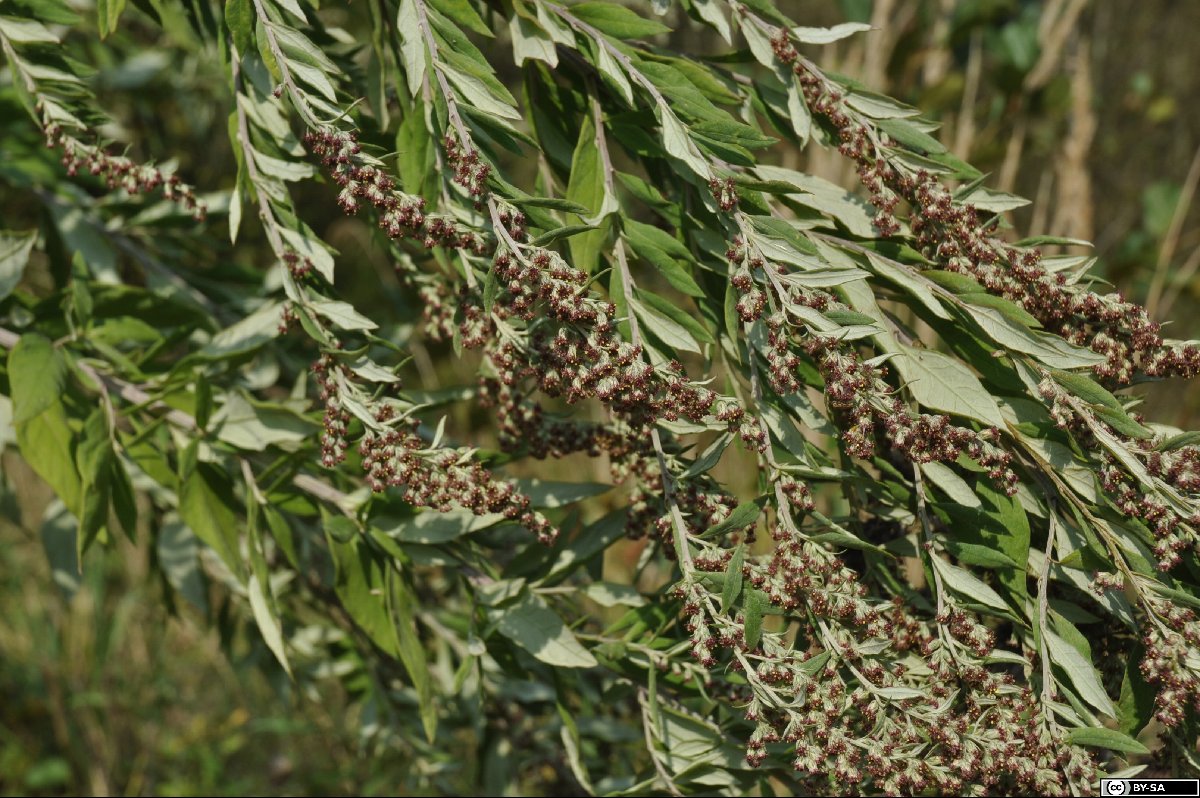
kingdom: Plantae
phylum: Tracheophyta
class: Magnoliopsida
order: Asterales
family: Asteraceae
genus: Artemisia
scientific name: Artemisia gilvescens
